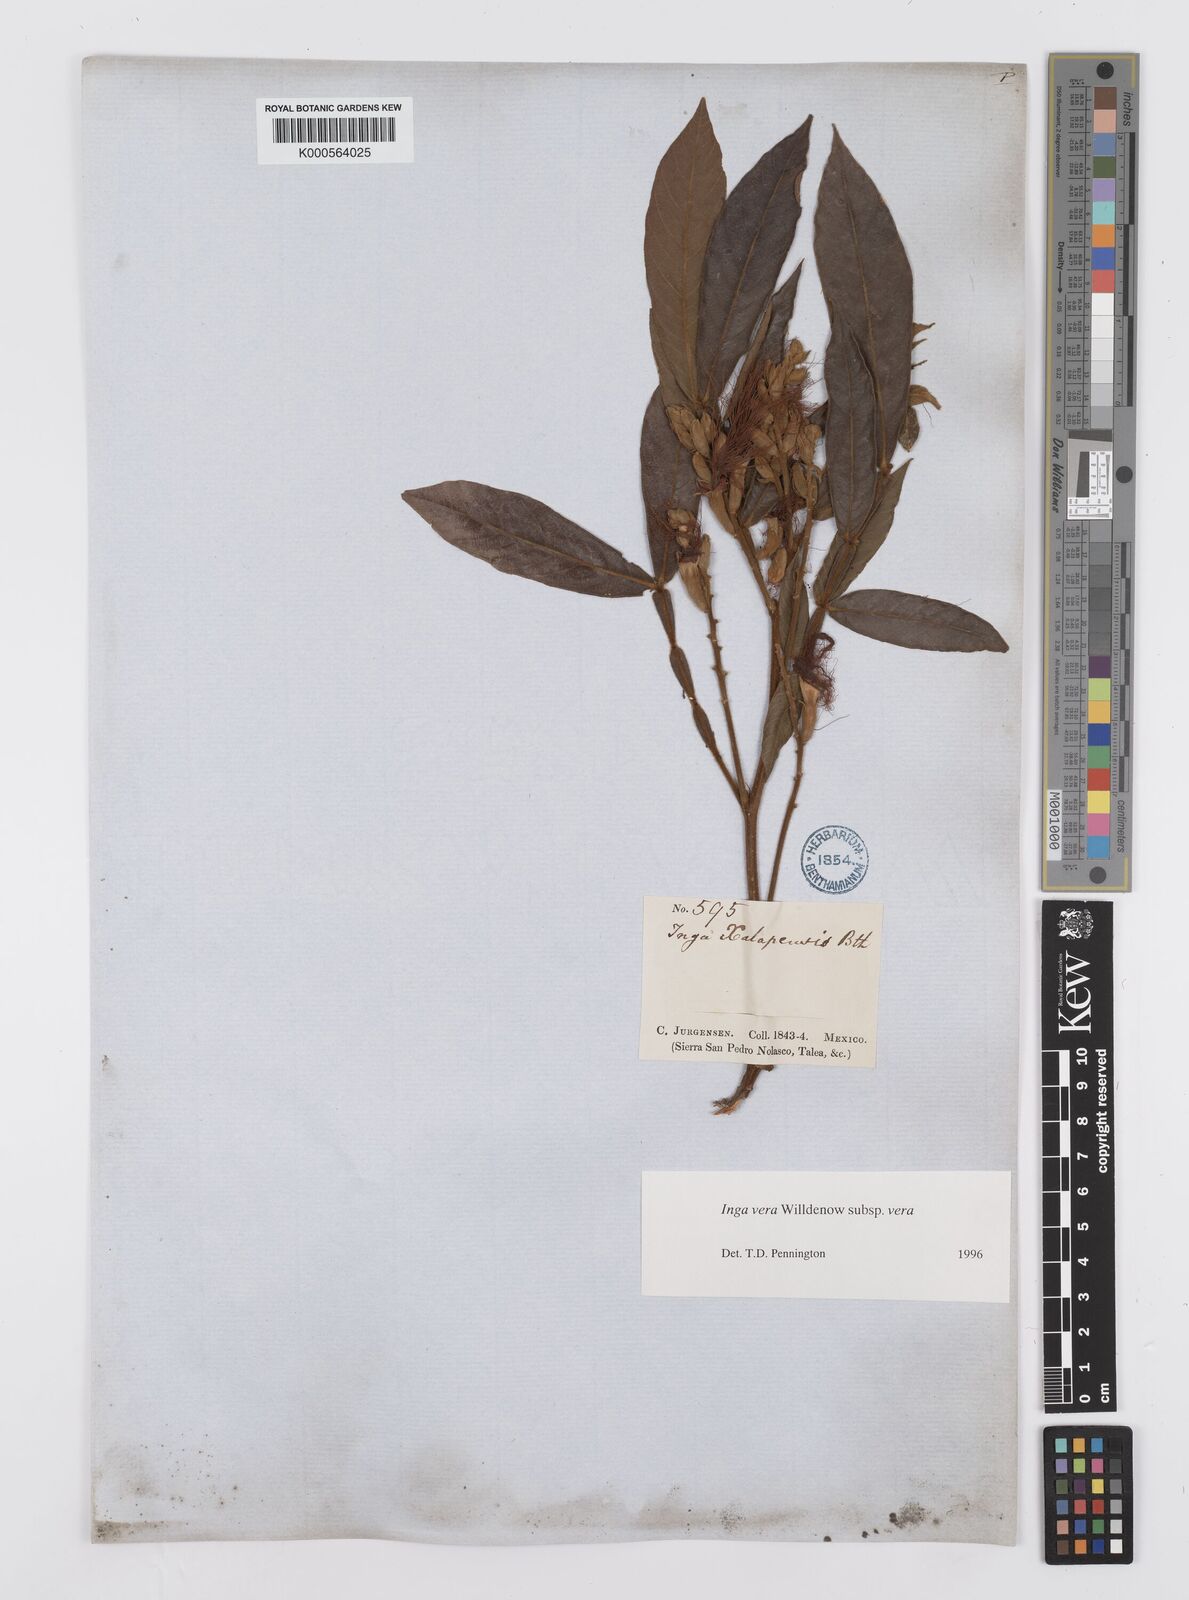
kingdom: Plantae
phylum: Tracheophyta
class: Magnoliopsida
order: Fabales
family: Fabaceae
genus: Inga
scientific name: Inga vera
